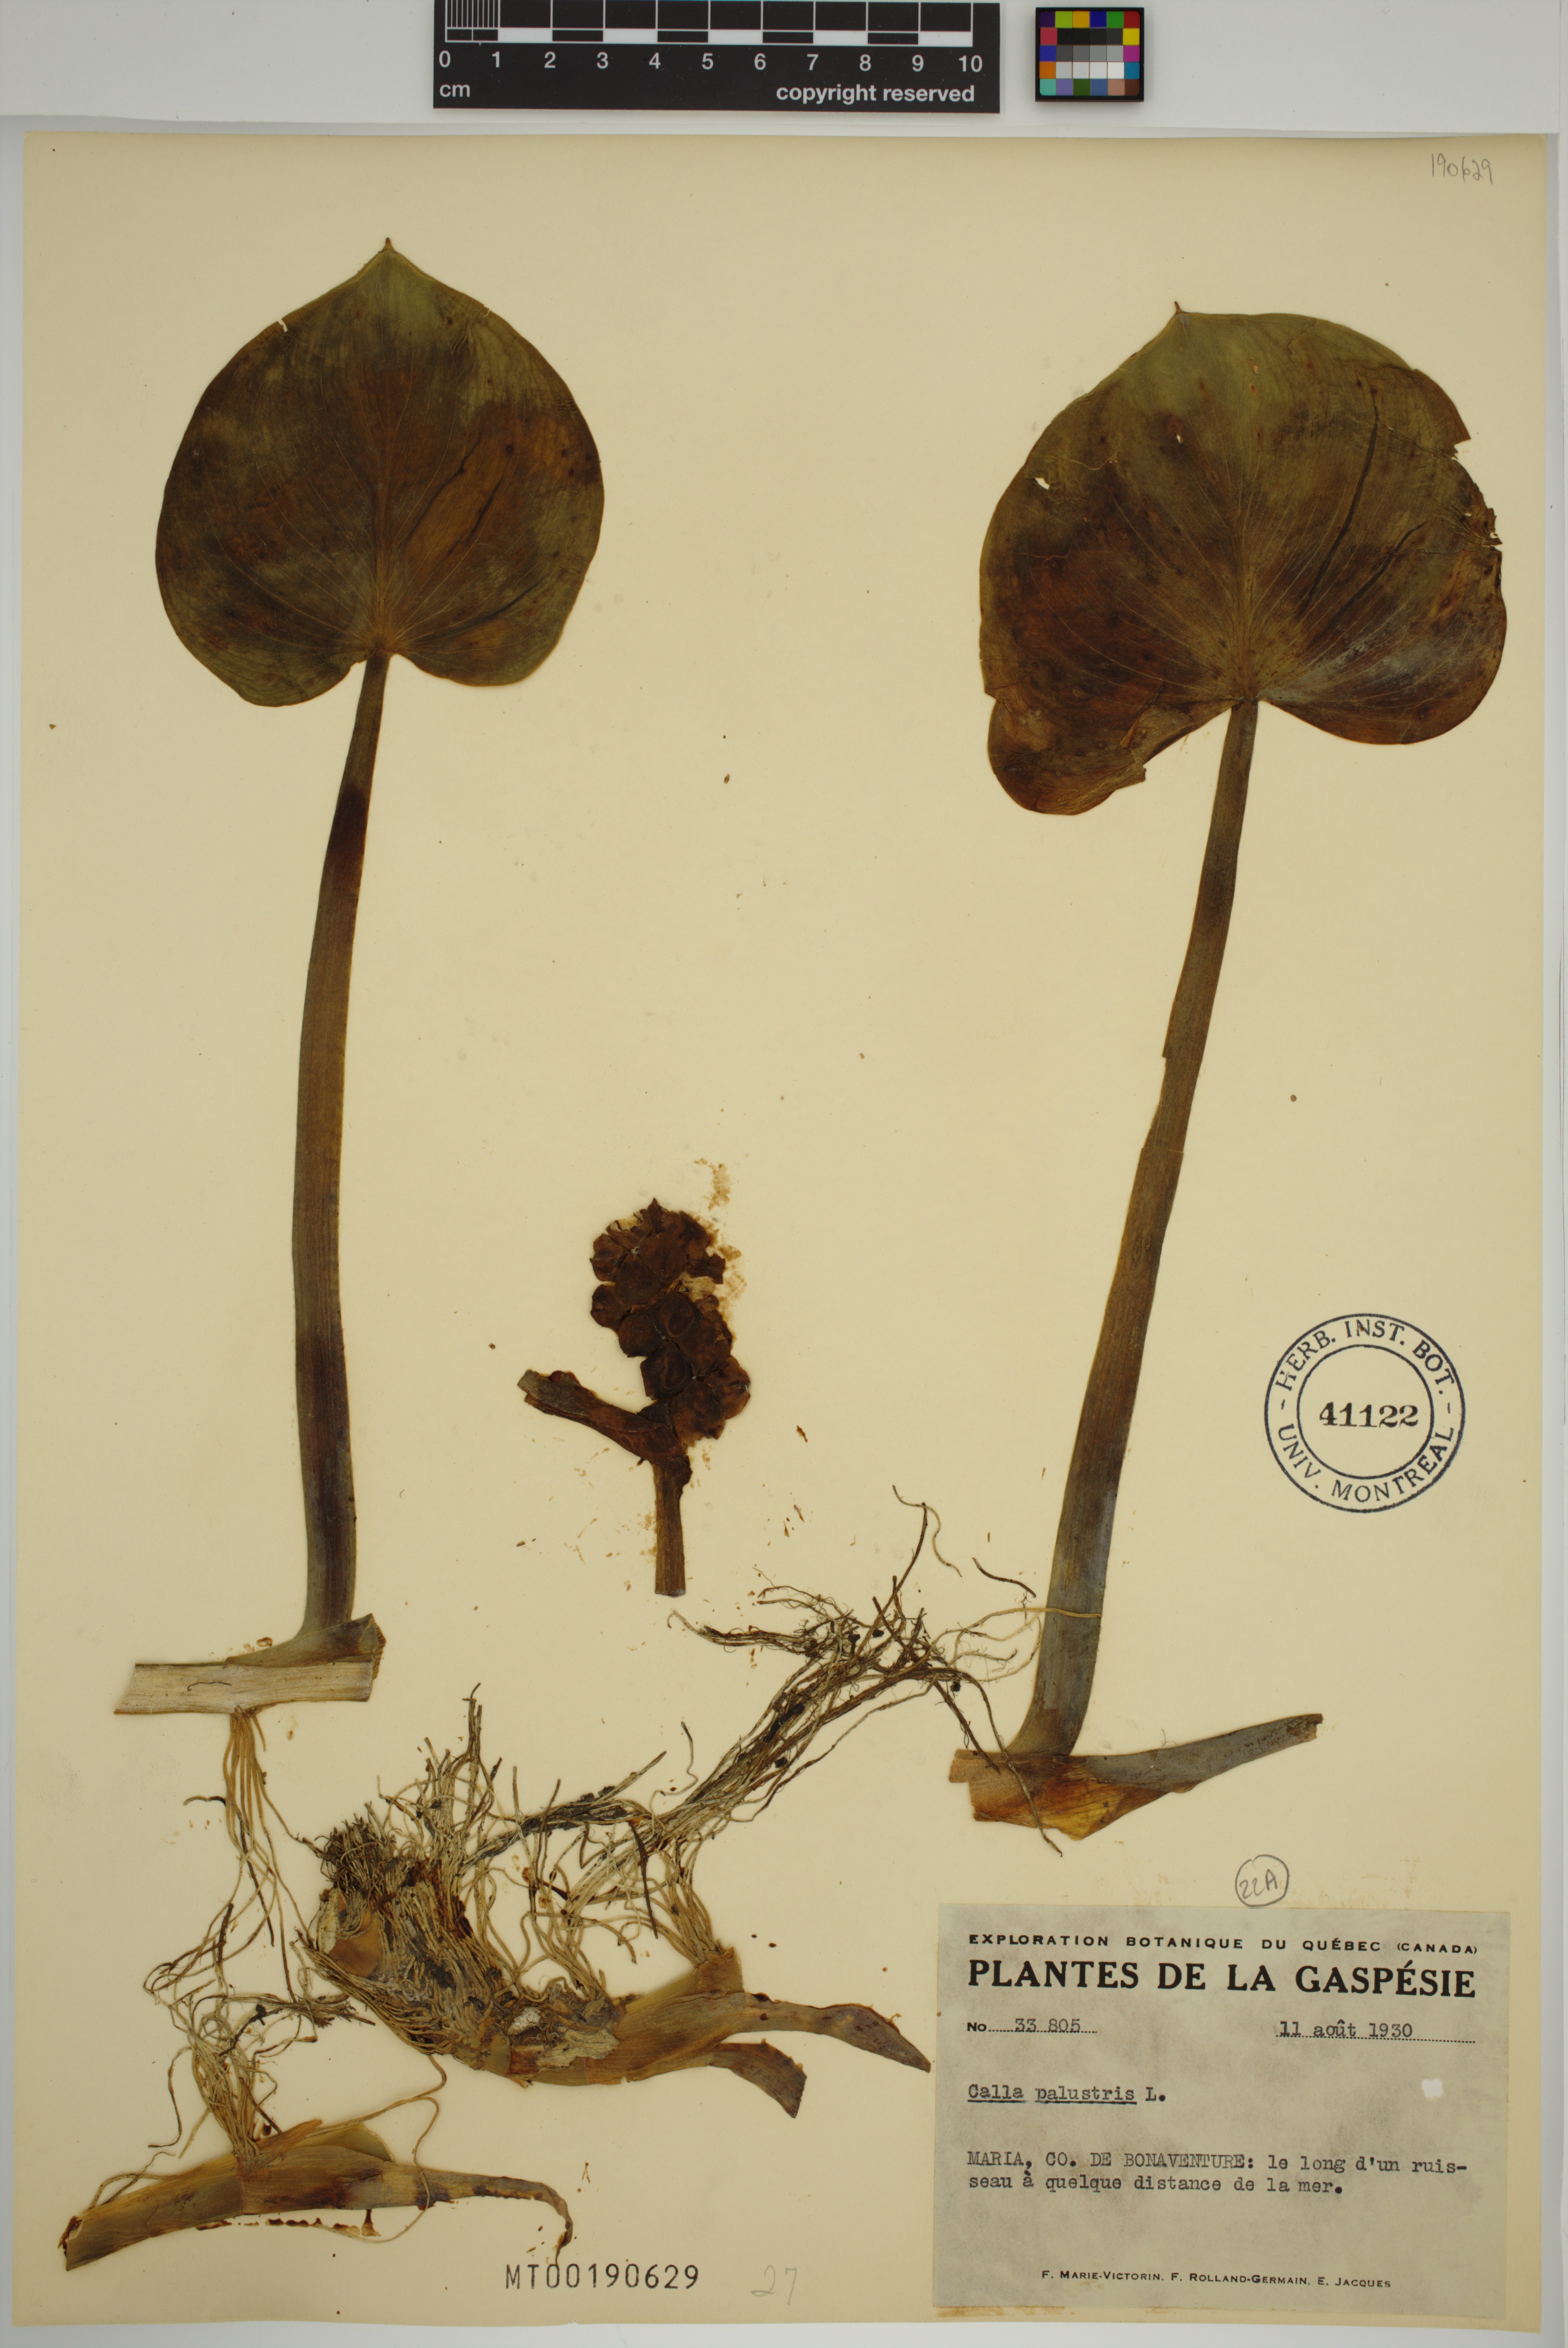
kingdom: Plantae
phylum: Tracheophyta
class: Liliopsida
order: Alismatales
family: Araceae
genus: Calla
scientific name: Calla palustris
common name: Bog arum
